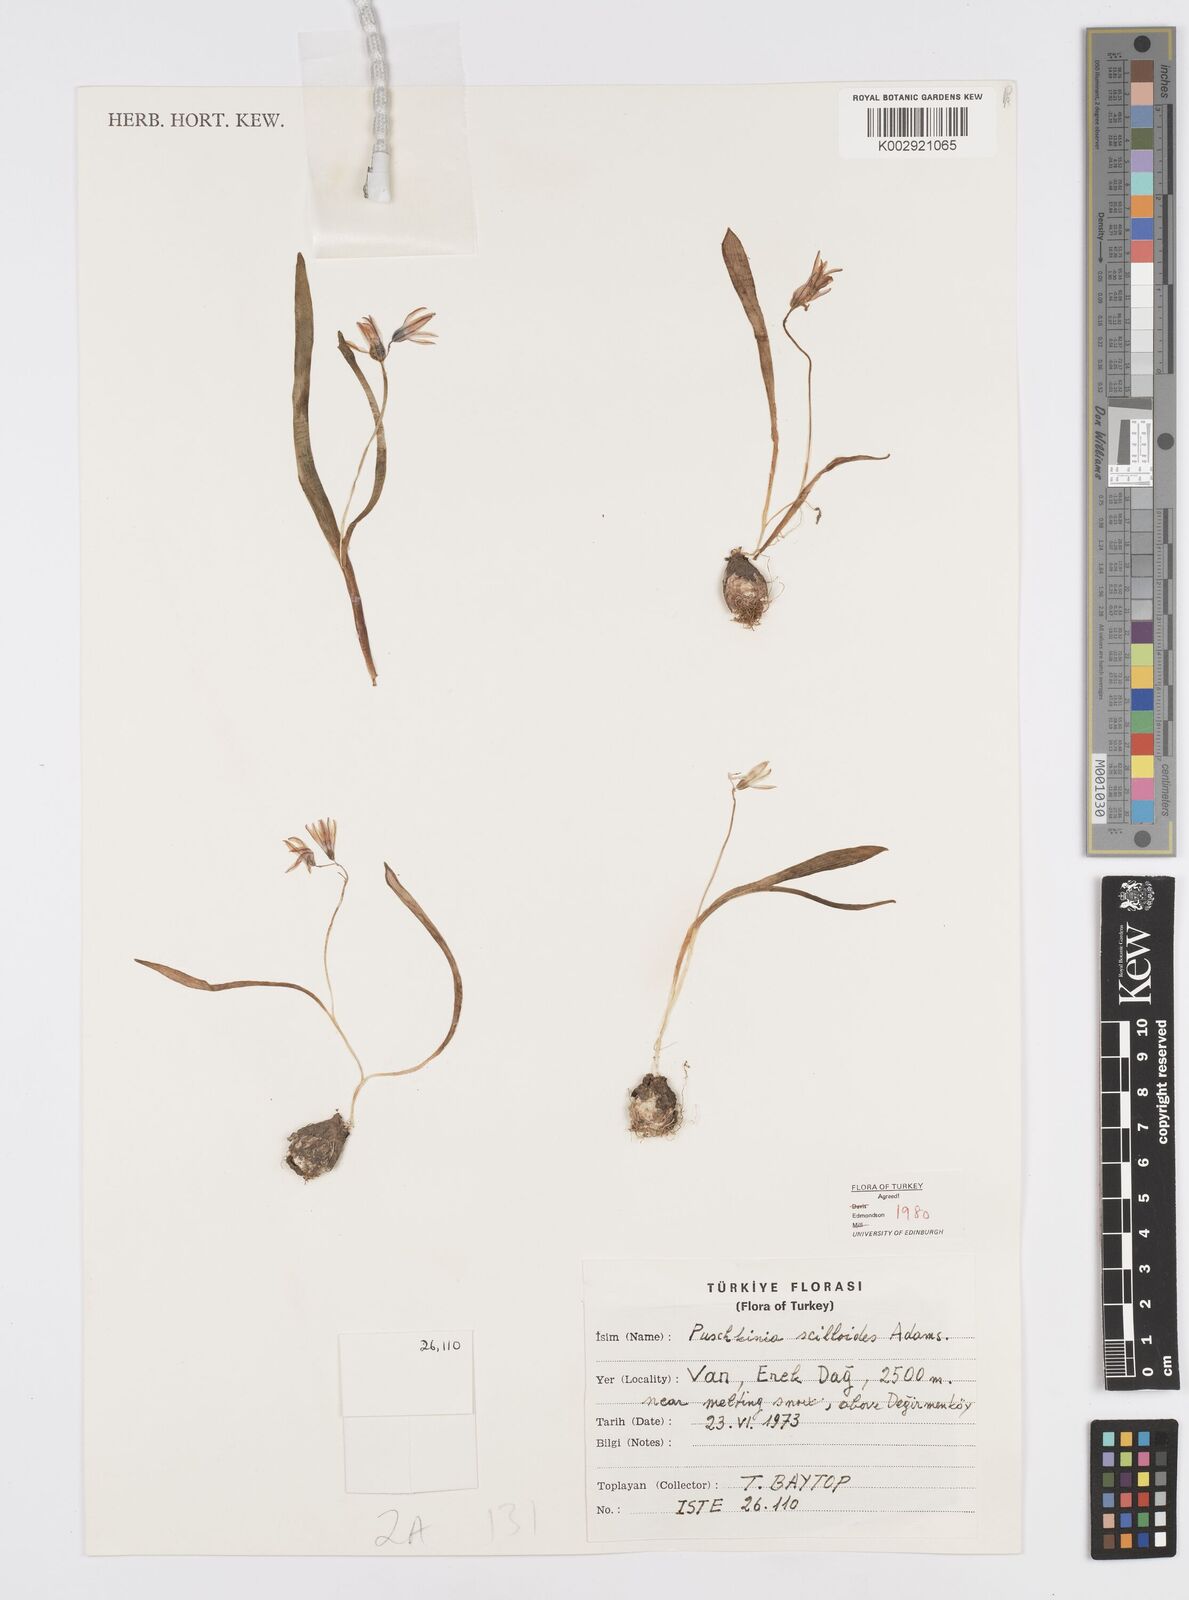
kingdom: Plantae
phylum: Tracheophyta
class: Liliopsida
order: Asparagales
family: Asparagaceae
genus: Puschkinia
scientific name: Puschkinia scilloides
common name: Striped squill
